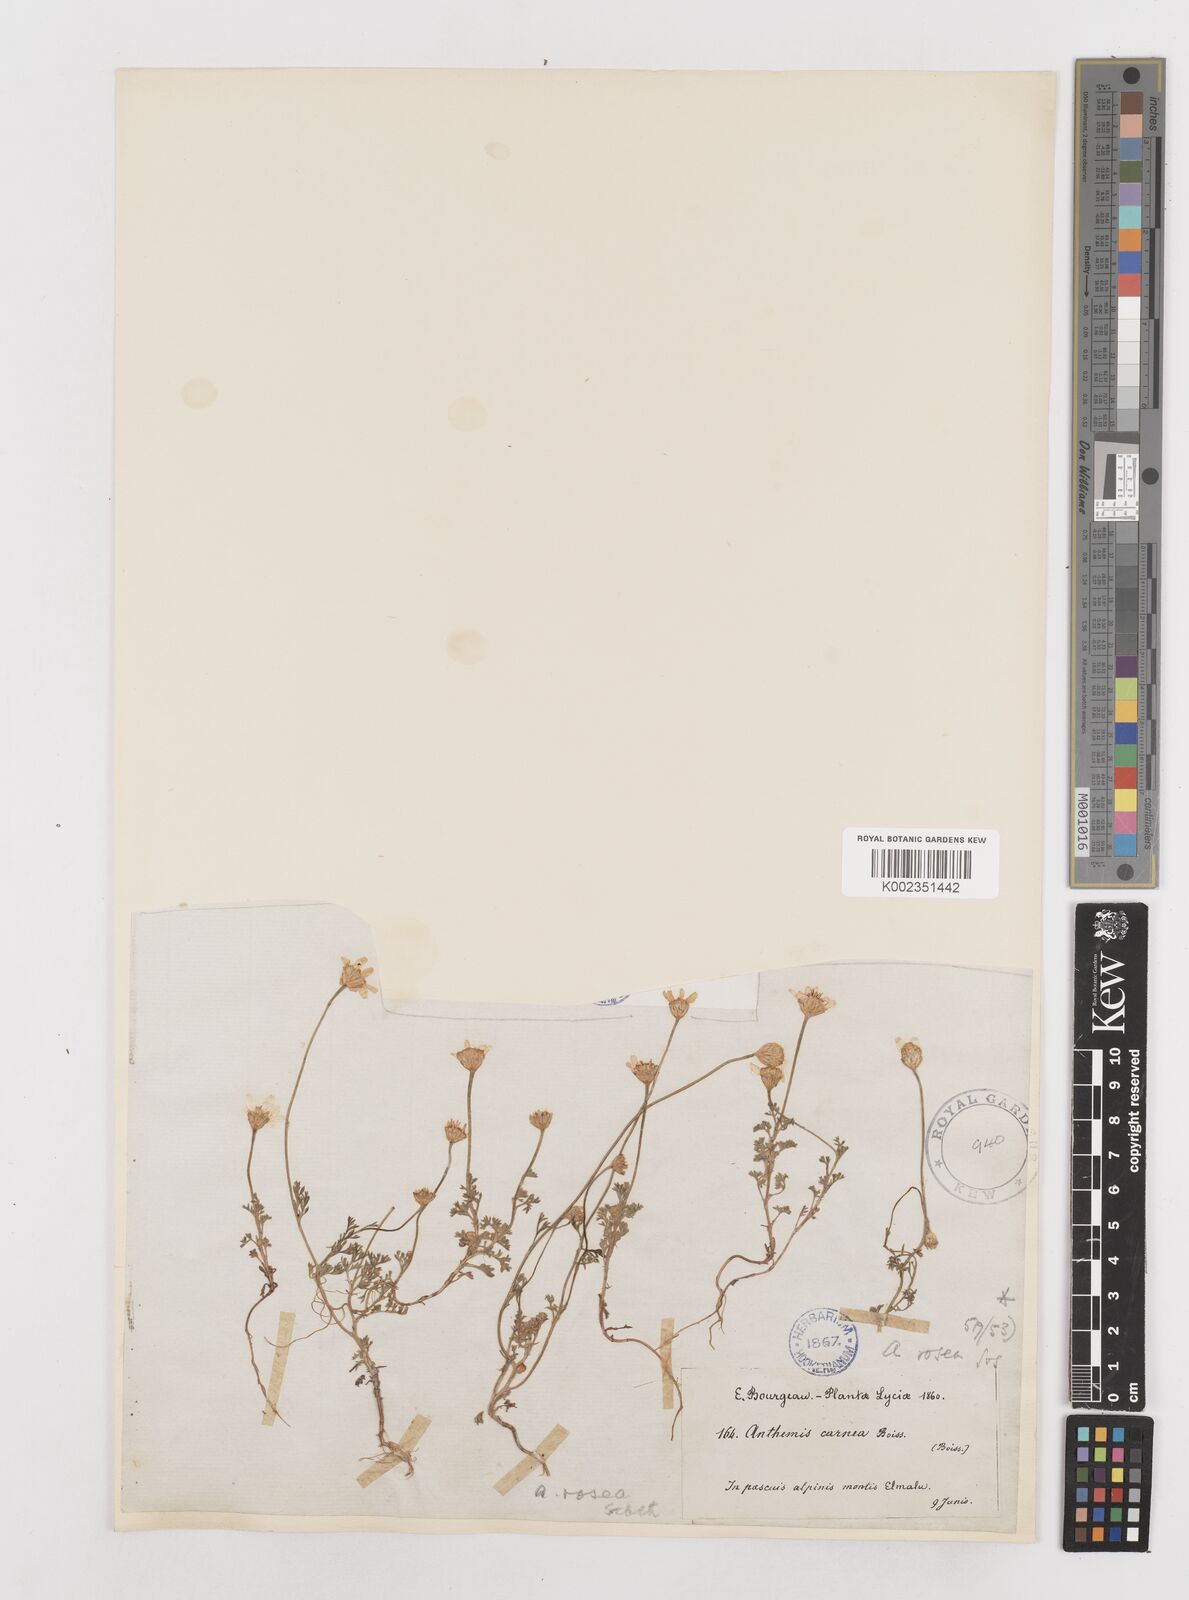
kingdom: Plantae
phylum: Tracheophyta
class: Magnoliopsida
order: Asterales
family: Asteraceae
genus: Anthemis
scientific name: Anthemis rosea
